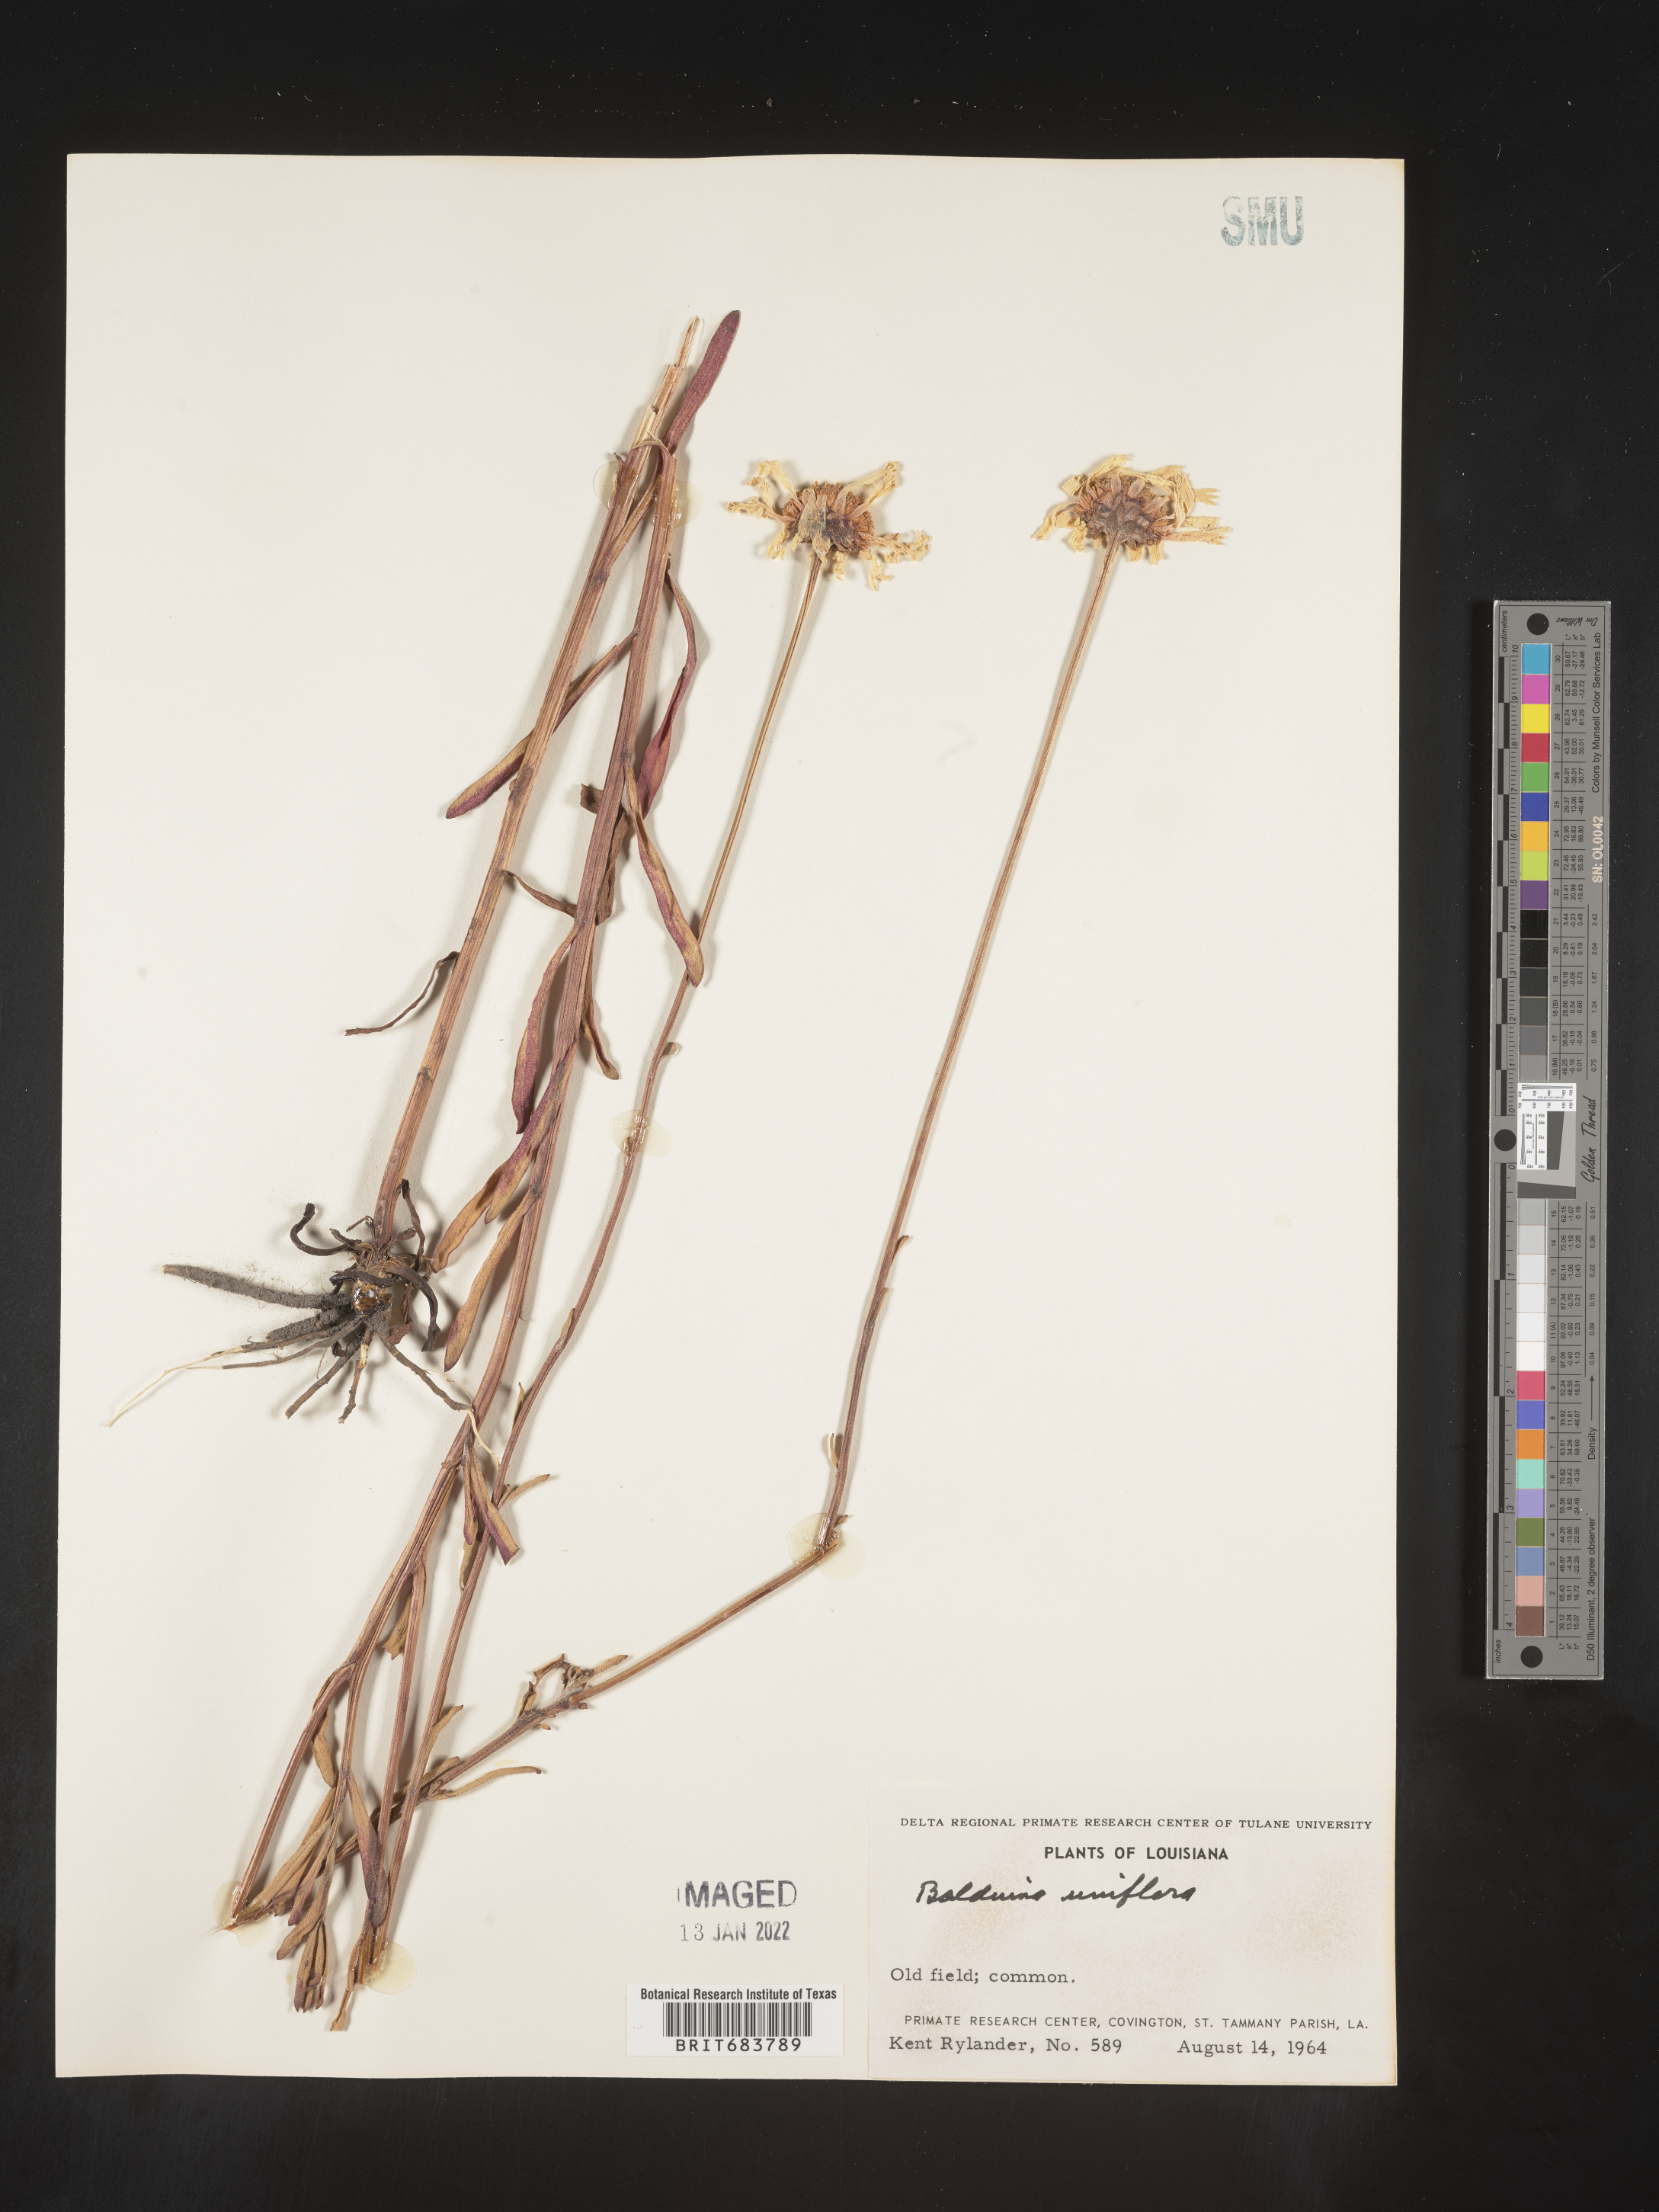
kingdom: Plantae
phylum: Tracheophyta
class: Magnoliopsida
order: Asterales
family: Asteraceae
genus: Balduina
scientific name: Balduina uniflora
